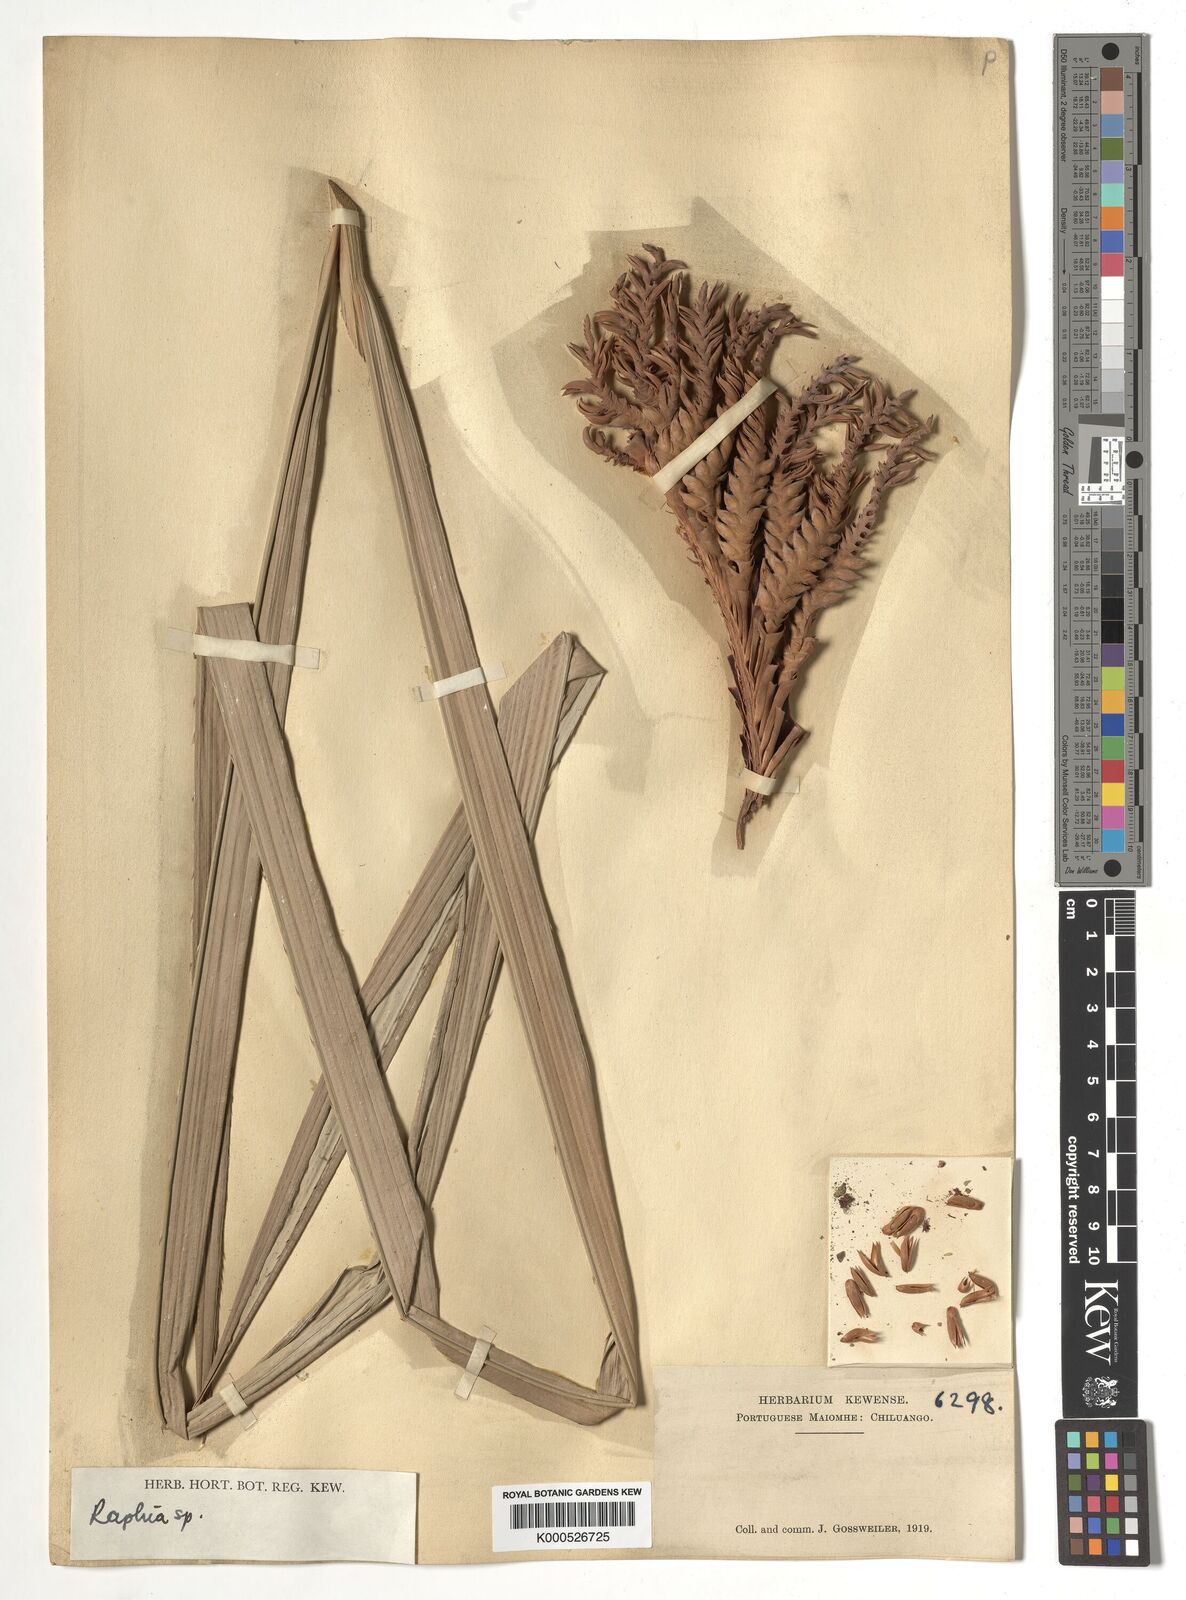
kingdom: Plantae
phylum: Tracheophyta
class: Liliopsida
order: Arecales
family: Arecaceae
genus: Raphia
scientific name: Raphia
